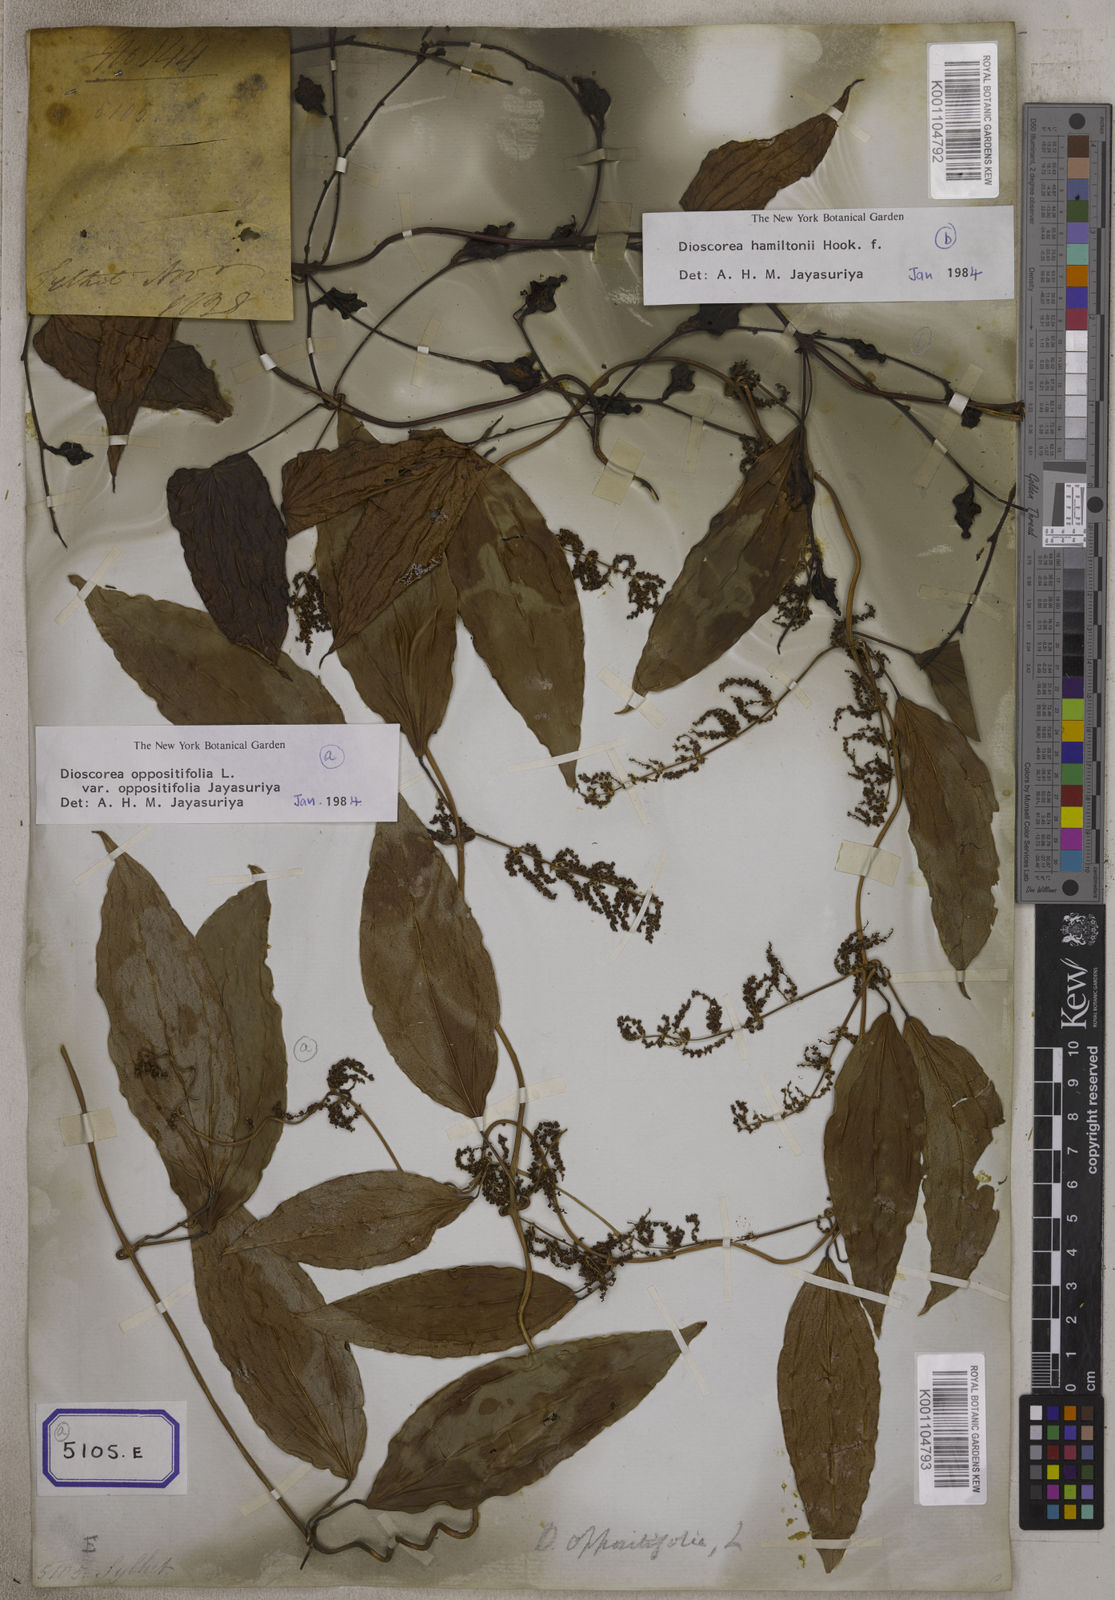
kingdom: Plantae
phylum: Tracheophyta
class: Liliopsida
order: Dioscoreales
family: Dioscoreaceae
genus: Dioscorea
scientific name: Dioscorea glabra
